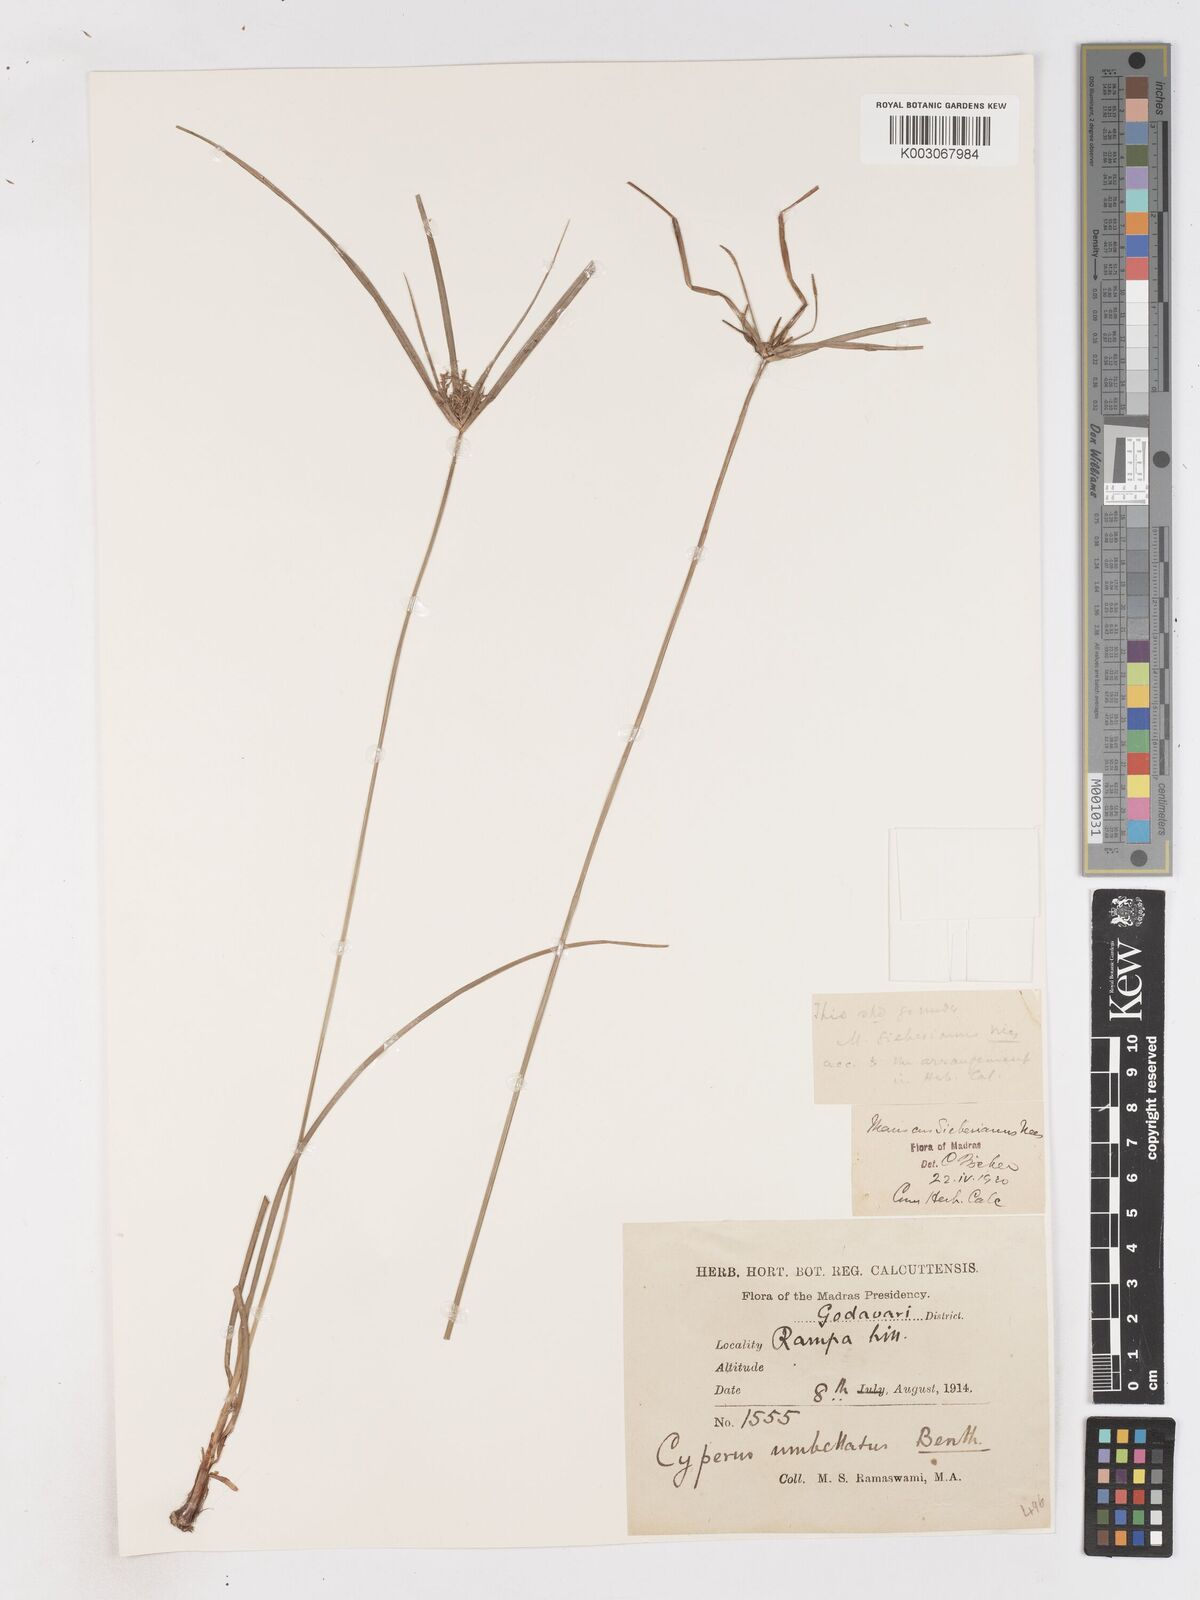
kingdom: Plantae
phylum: Tracheophyta
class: Liliopsida
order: Poales
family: Cyperaceae
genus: Cyperus
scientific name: Cyperus paniceus
